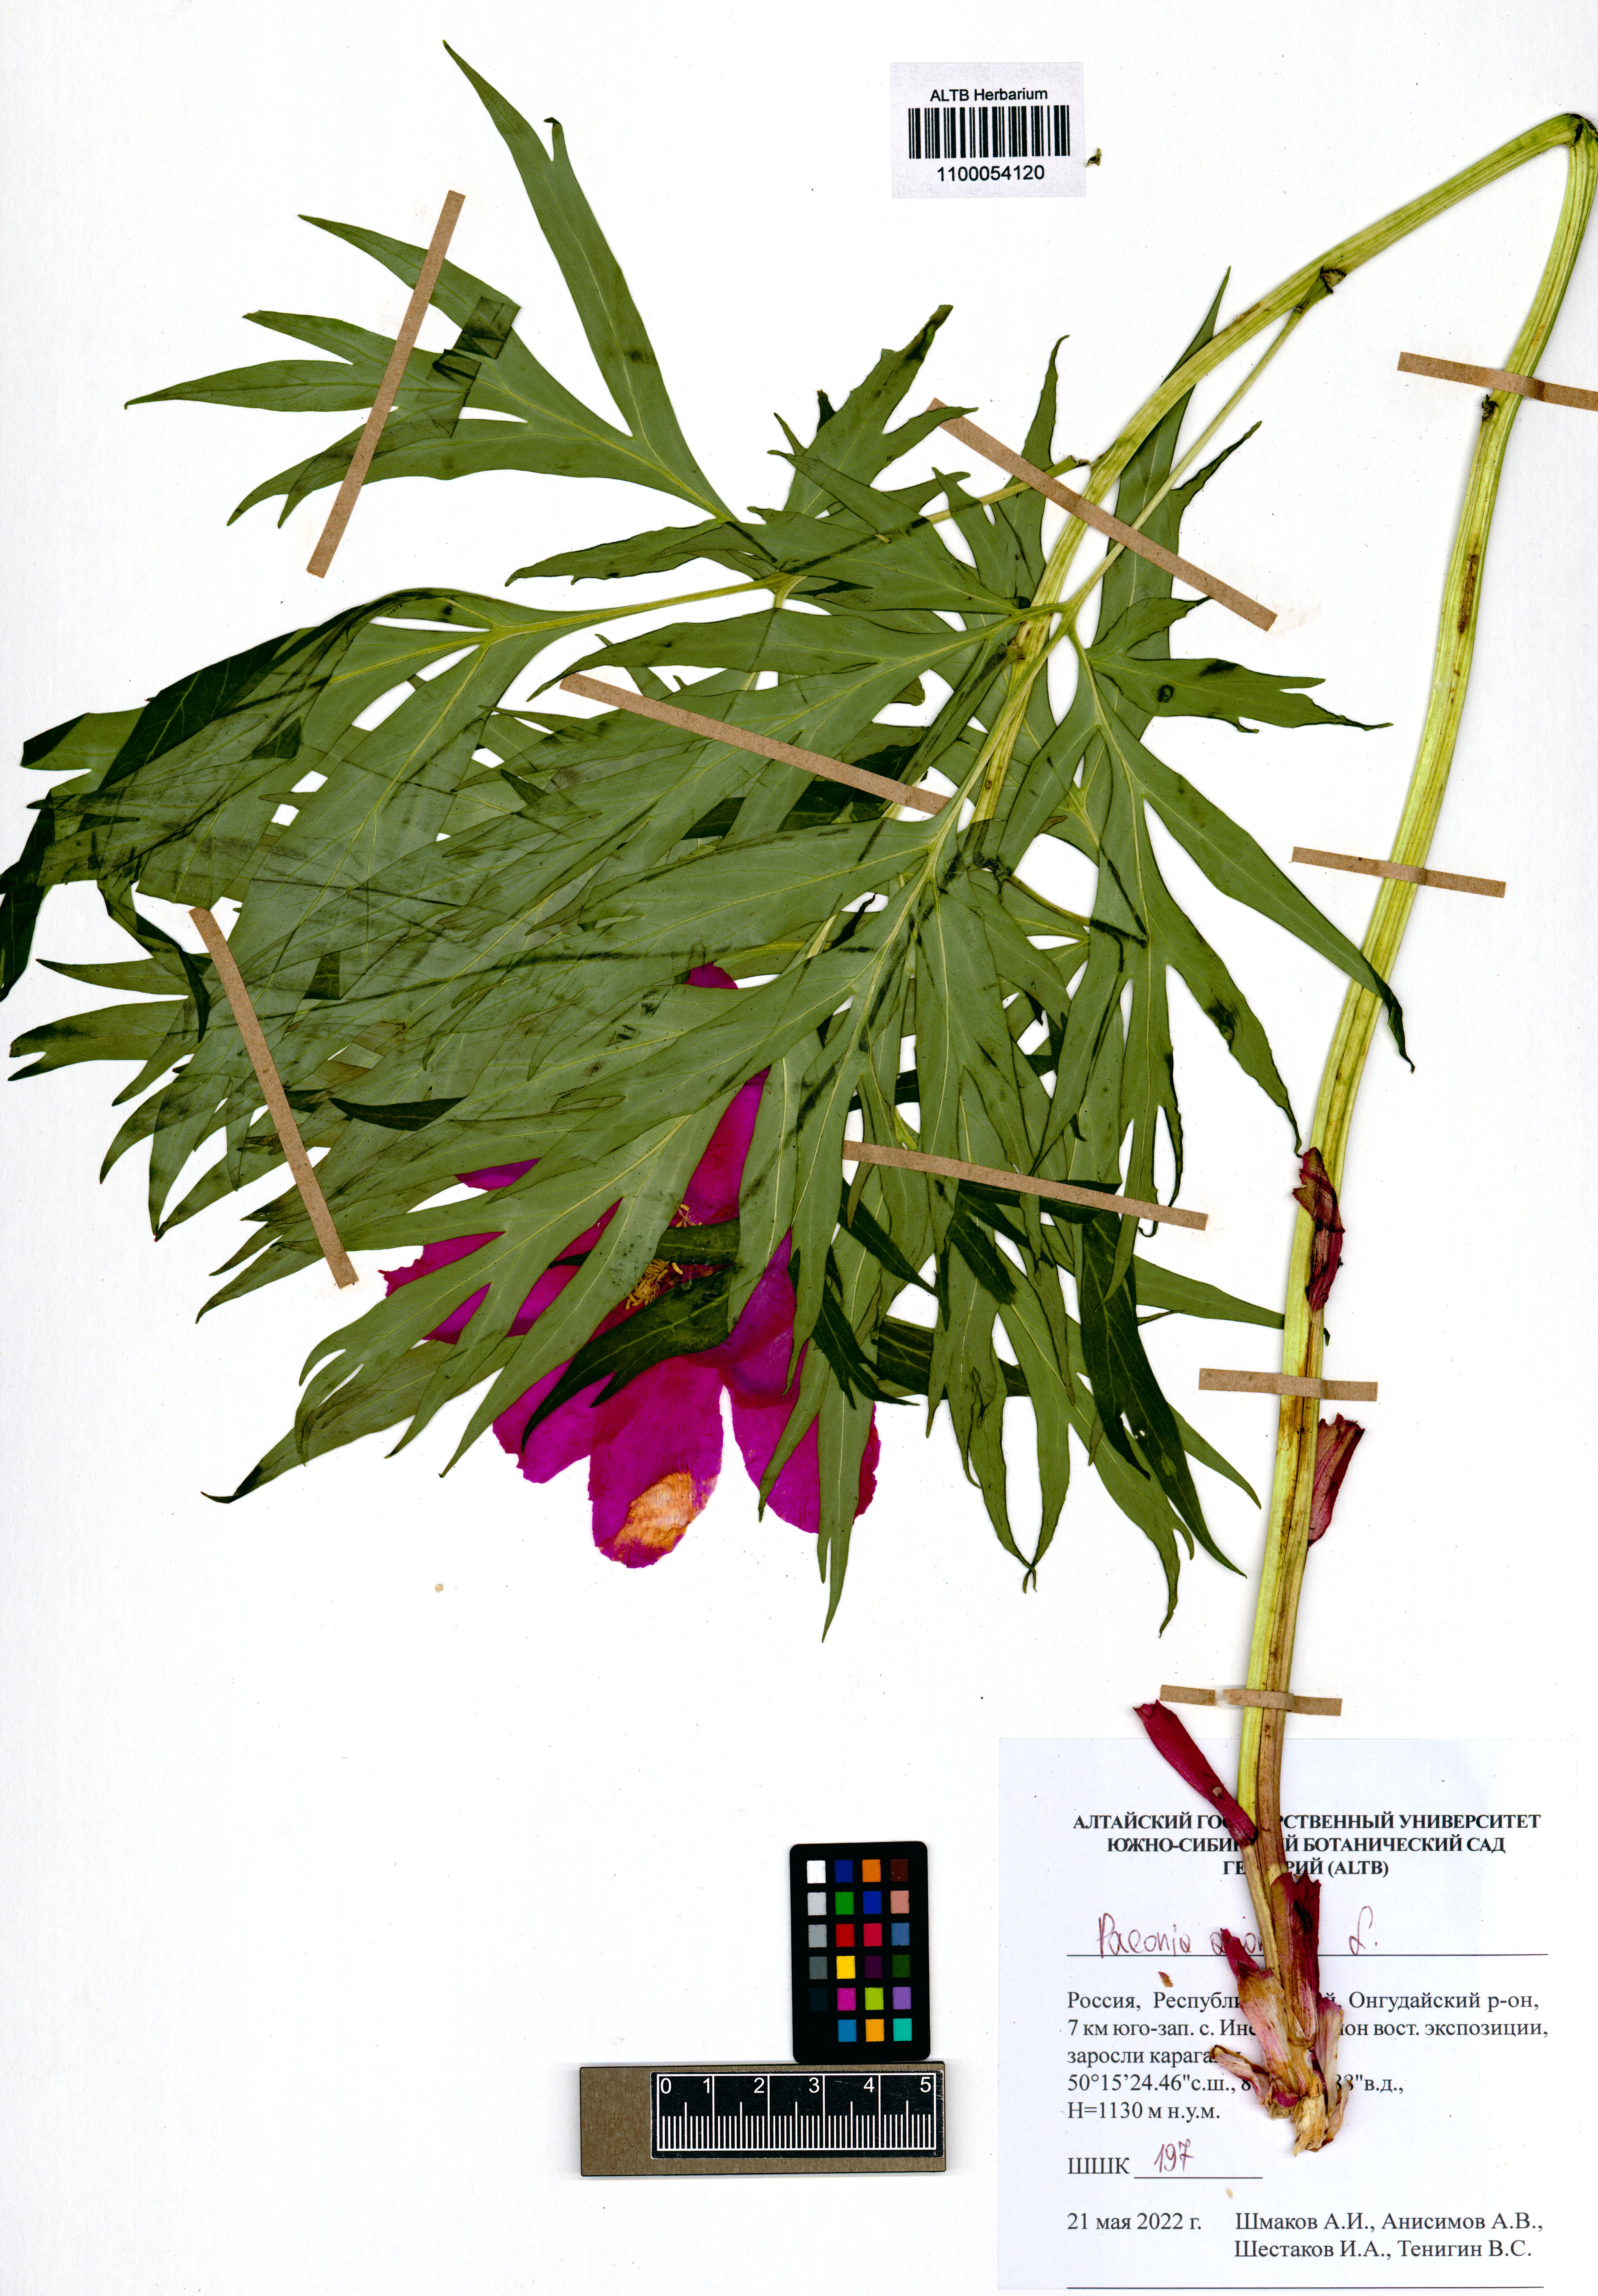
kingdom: Plantae
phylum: Tracheophyta
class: Magnoliopsida
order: Saxifragales
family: Paeoniaceae
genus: Paeonia
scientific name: Paeonia anomala
